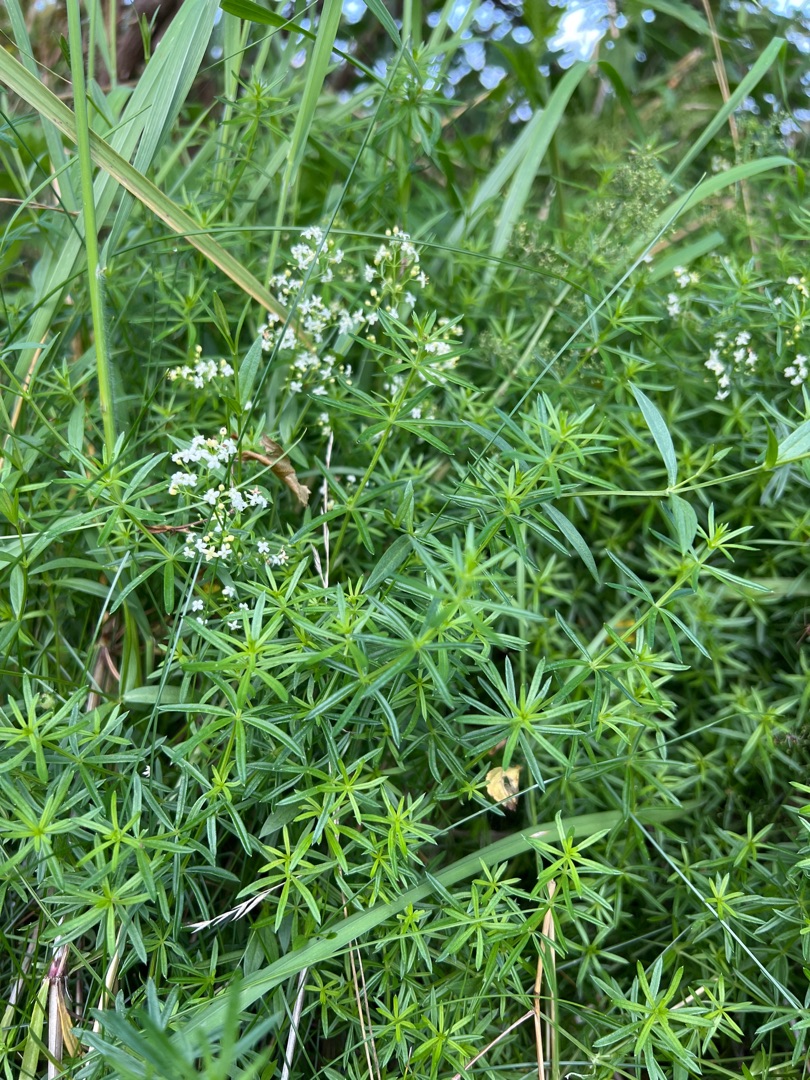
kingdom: Plantae
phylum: Tracheophyta
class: Magnoliopsida
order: Gentianales
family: Rubiaceae
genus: Galium
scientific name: Galium mollugo
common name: Hvid snerre
